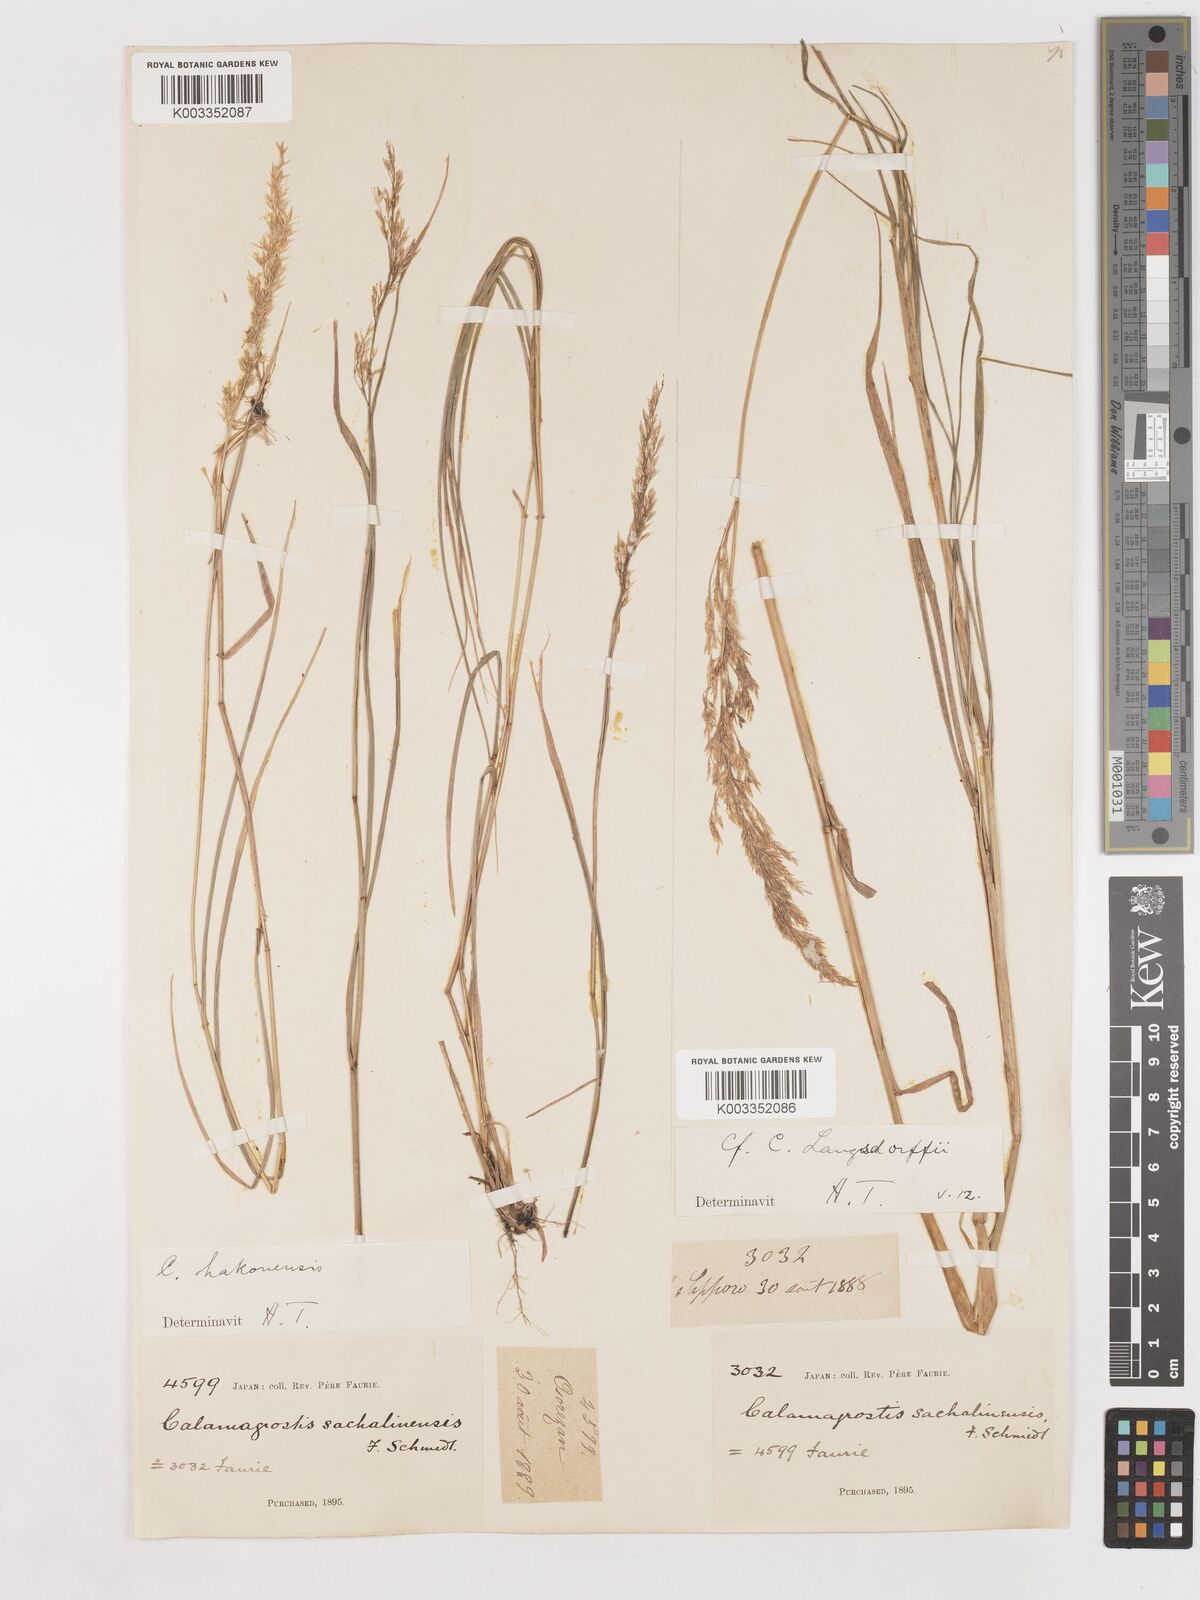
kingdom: Plantae
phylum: Tracheophyta
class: Liliopsida
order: Poales
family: Poaceae
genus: Calamagrostis
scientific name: Calamagrostis hakonensis
